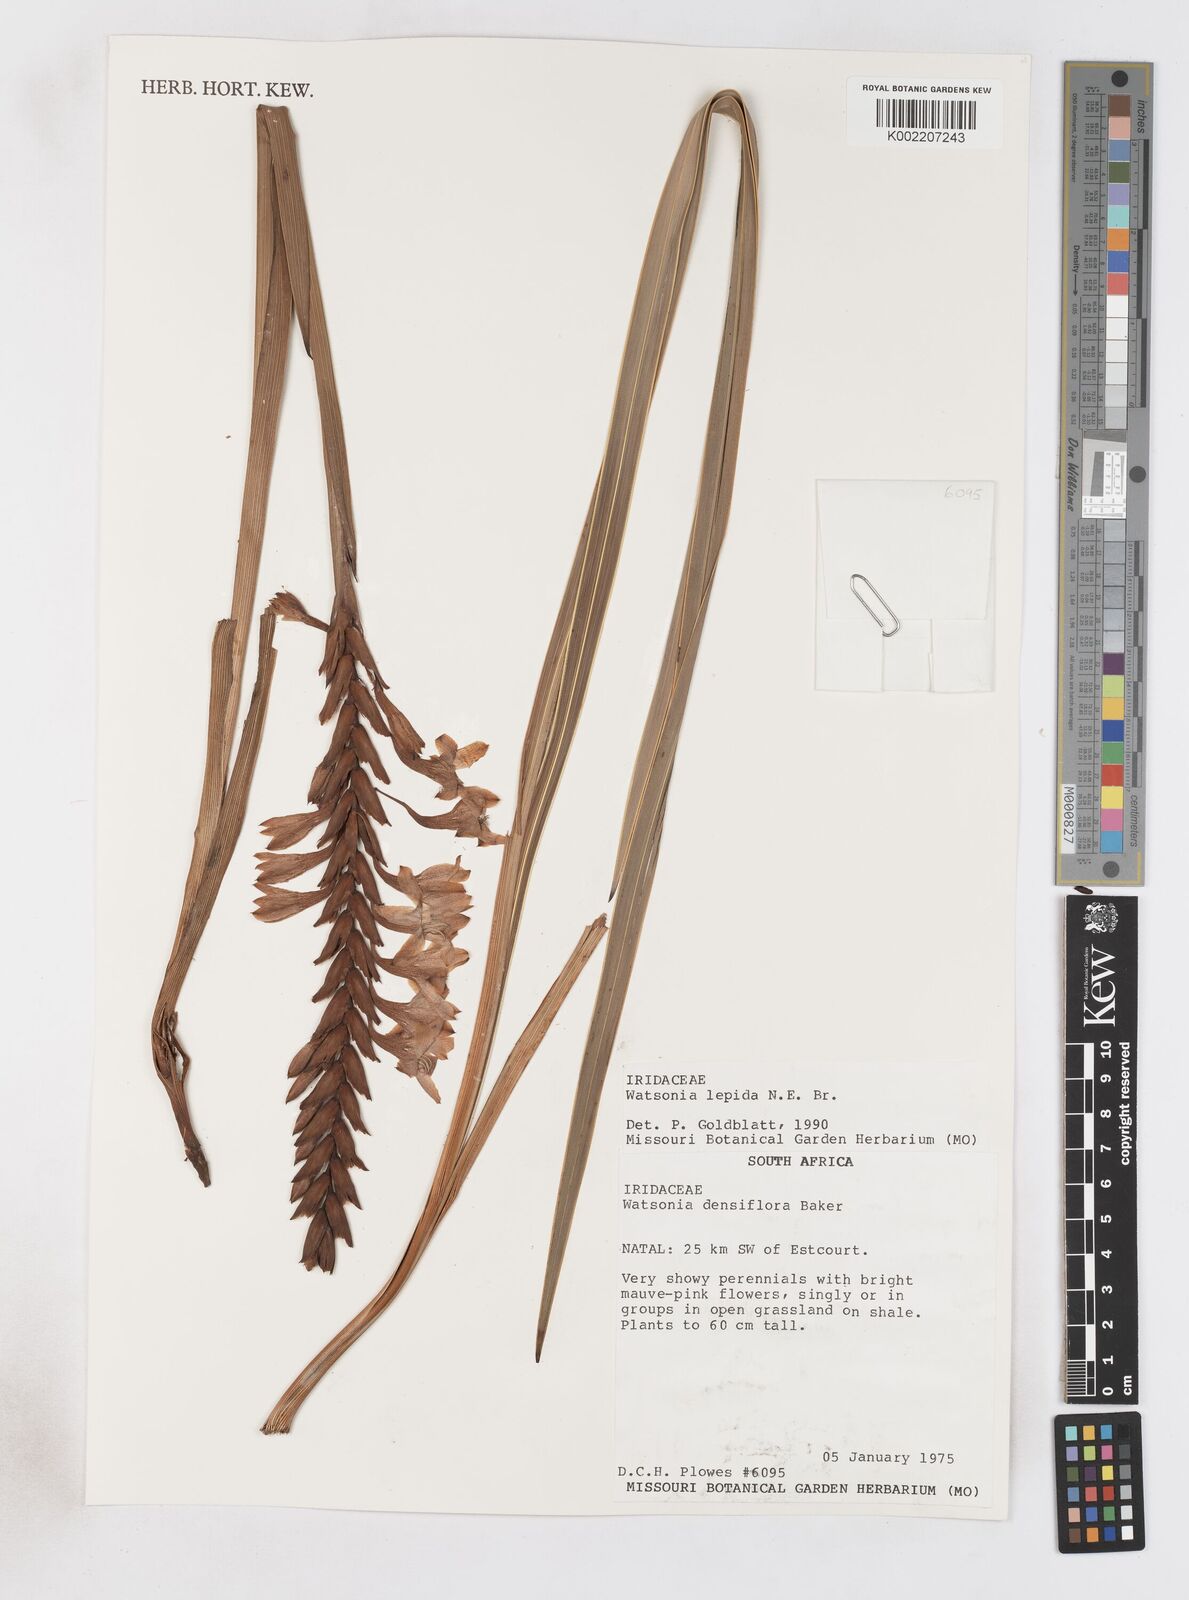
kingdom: Plantae
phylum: Tracheophyta
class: Liliopsida
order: Asparagales
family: Iridaceae
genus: Watsonia
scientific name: Watsonia lepida
